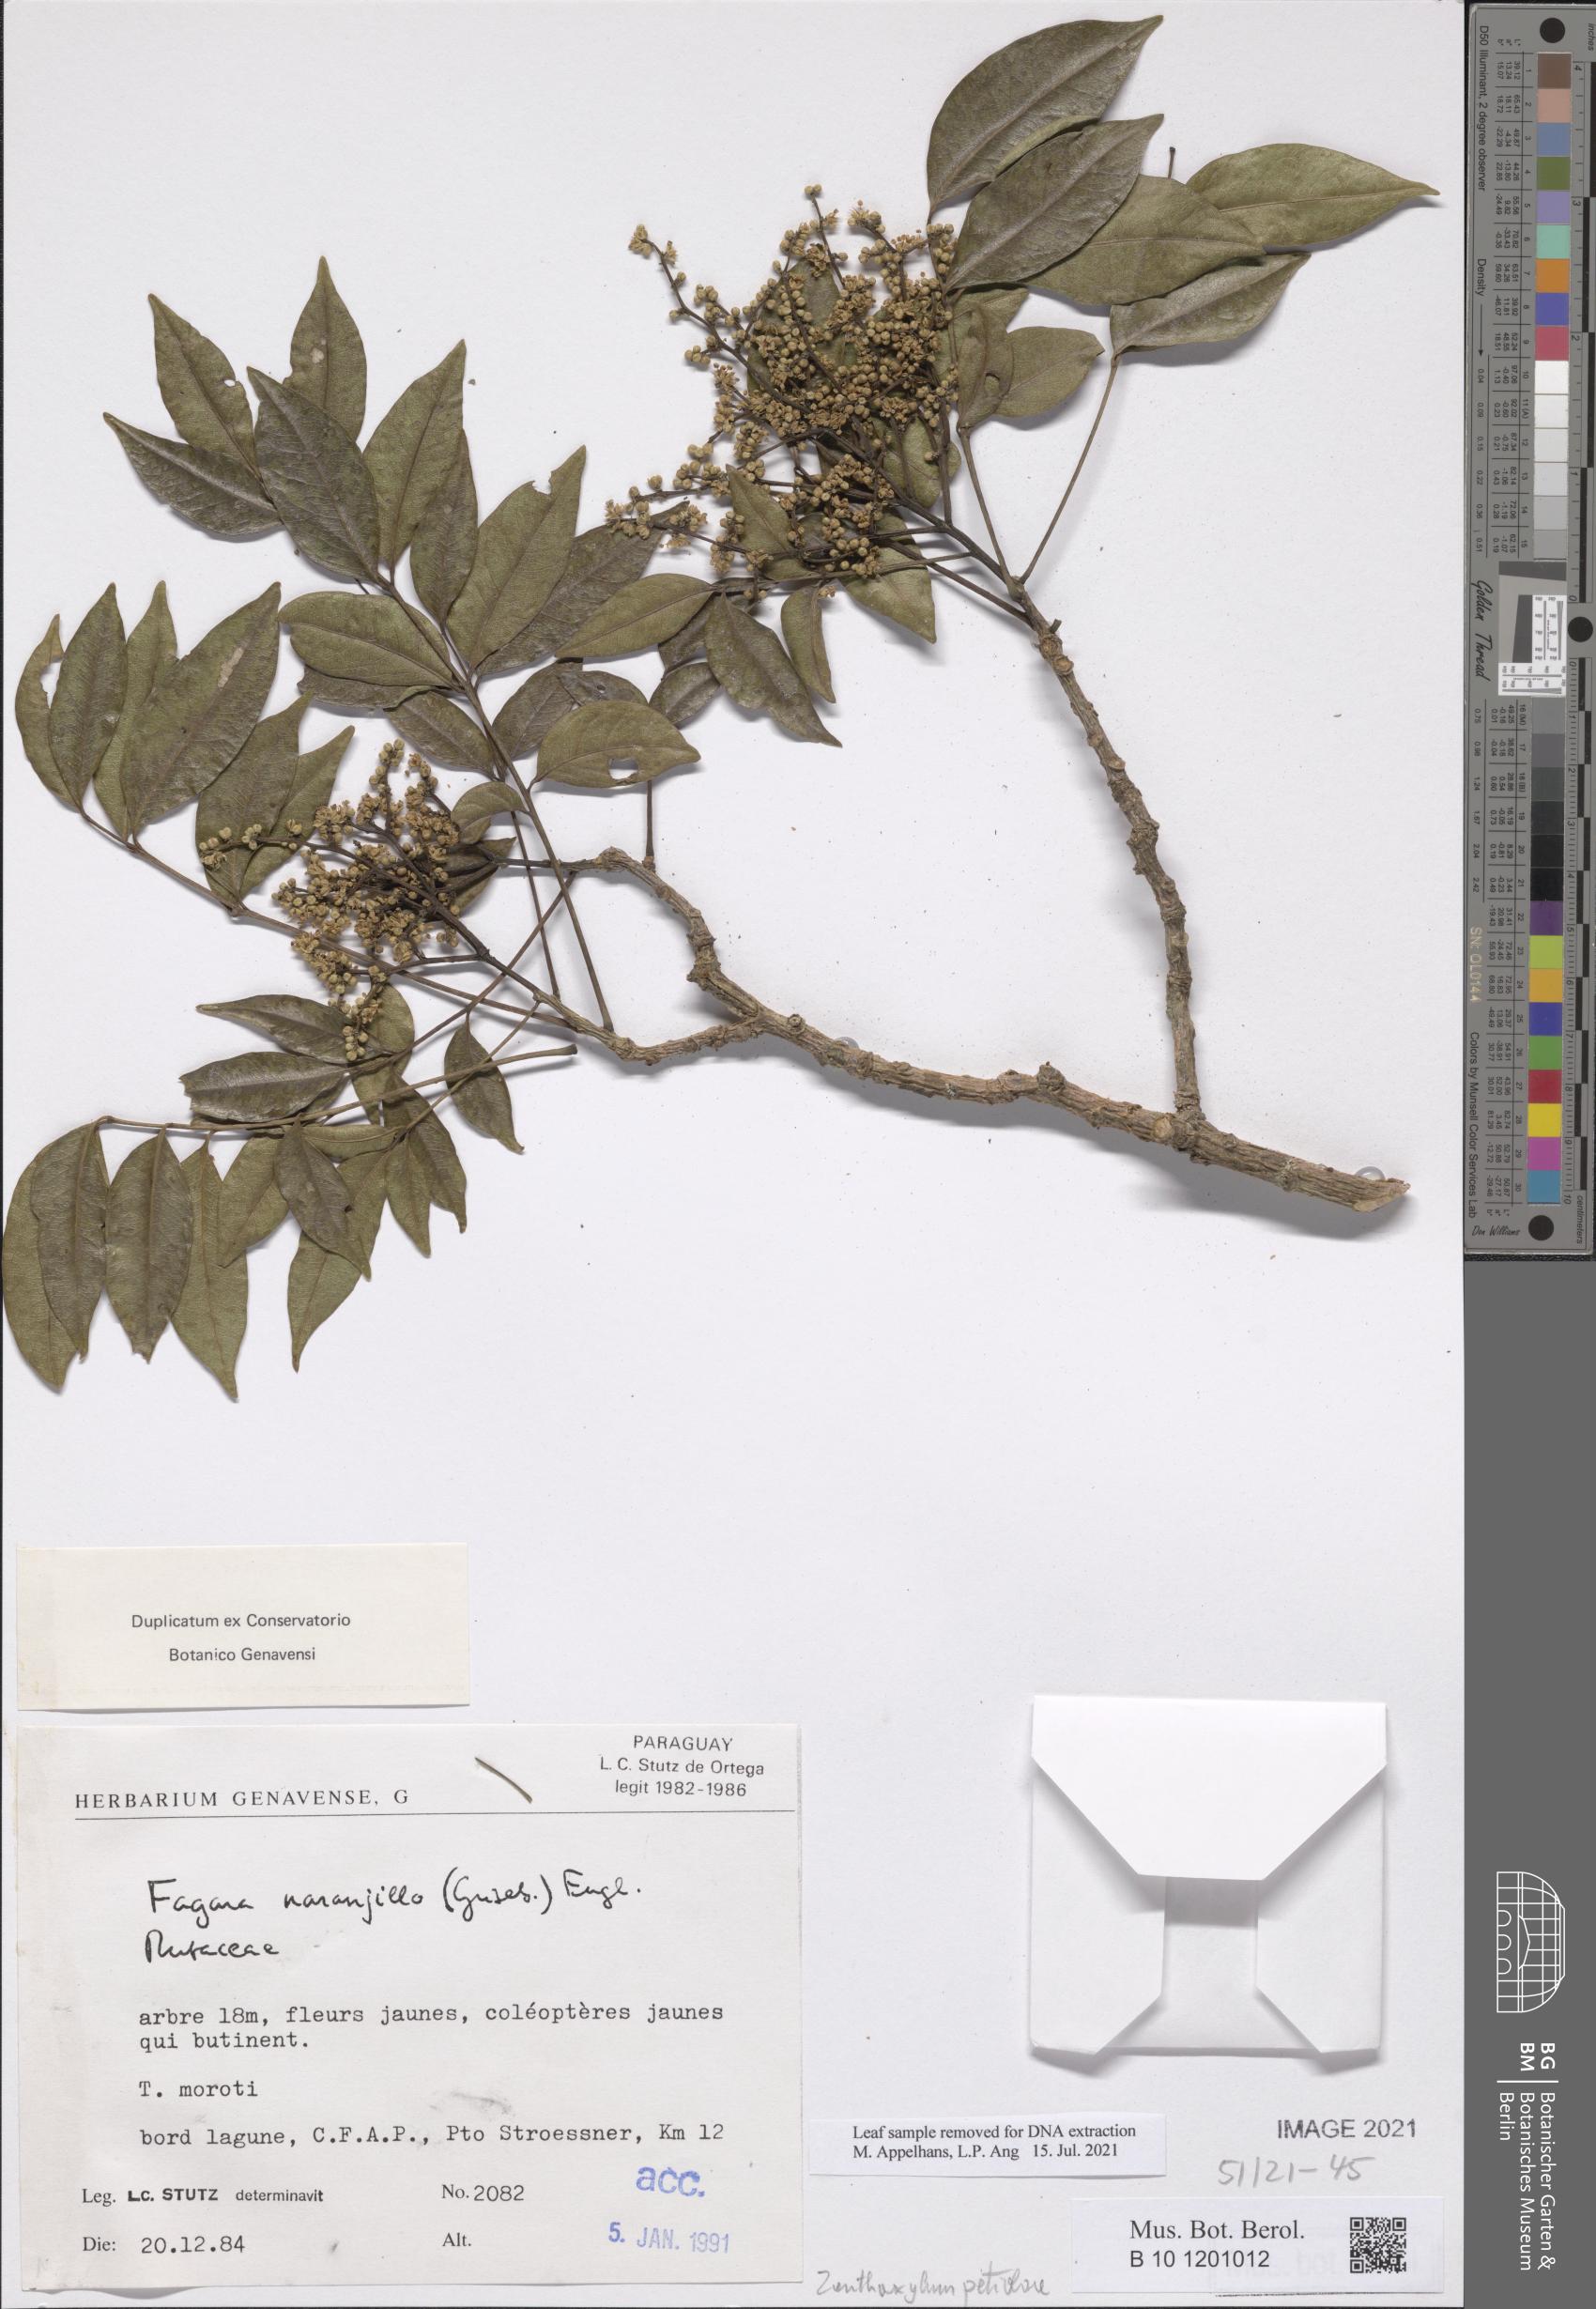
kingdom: Plantae
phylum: Tracheophyta
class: Magnoliopsida
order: Sapindales
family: Rutaceae
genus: Zanthoxylum
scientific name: Zanthoxylum petiolare
